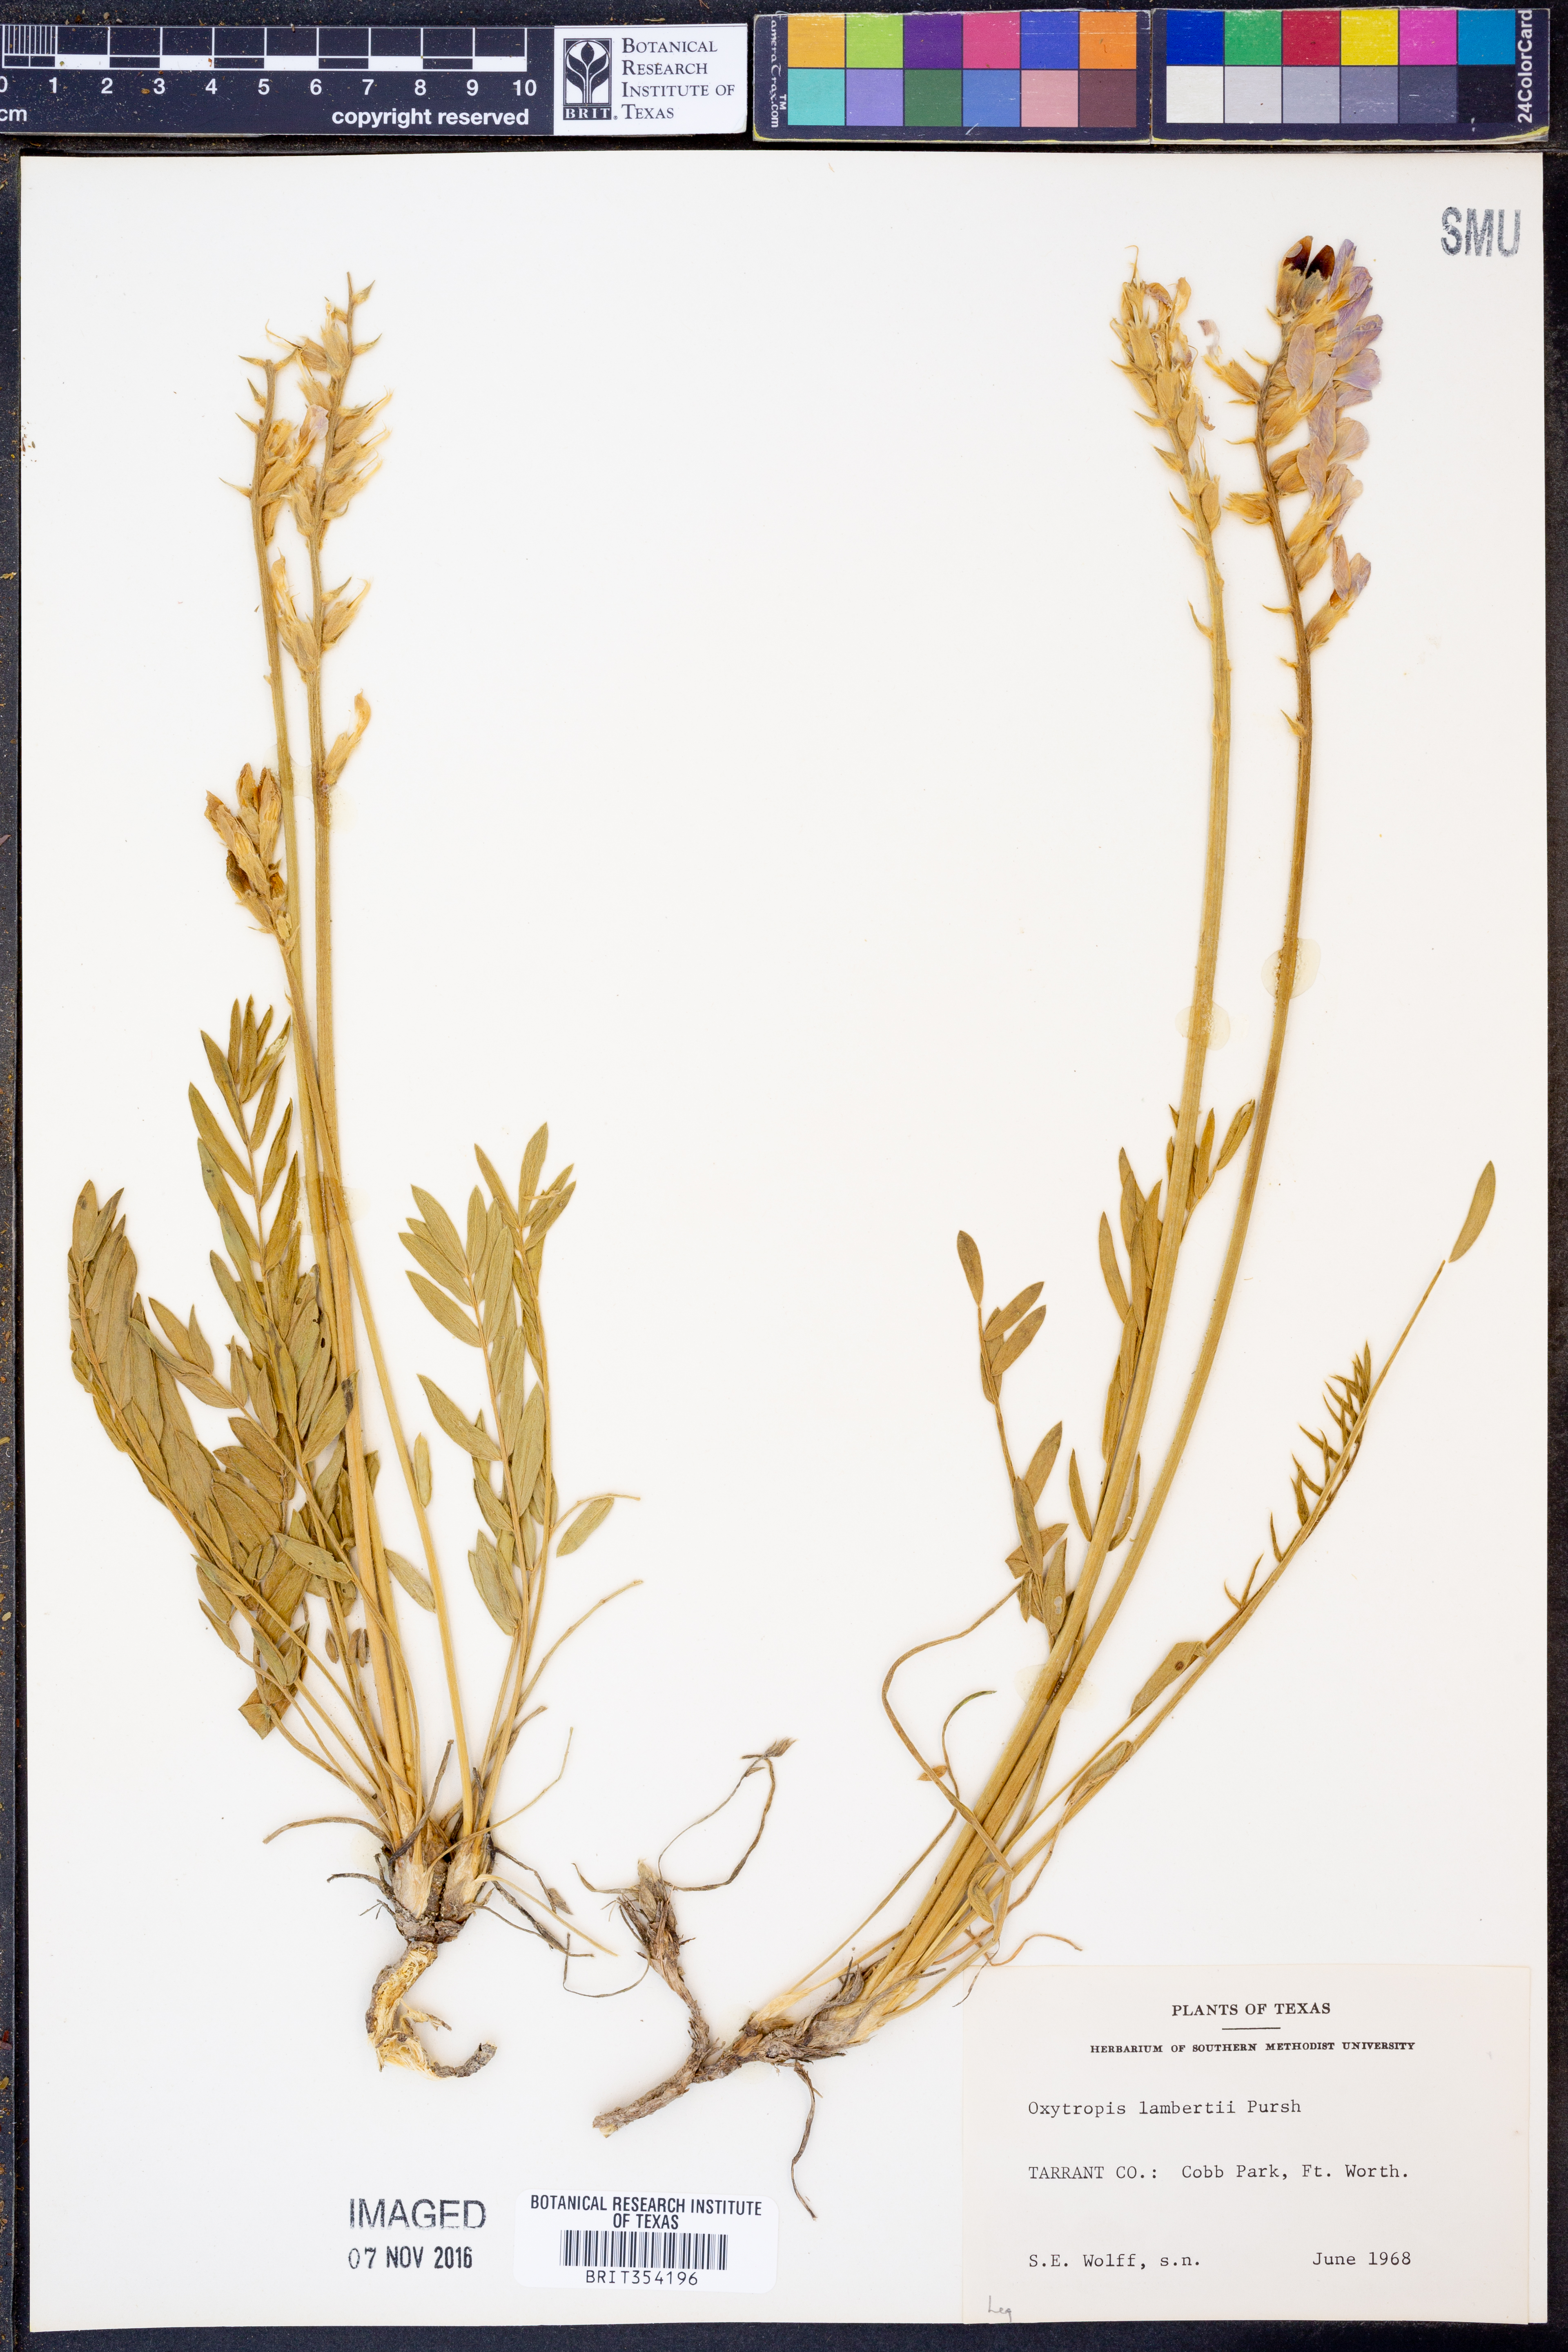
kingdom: Plantae
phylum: Tracheophyta
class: Magnoliopsida
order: Fabales
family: Fabaceae
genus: Oxytropis
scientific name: Oxytropis lambertii
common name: Purple locoweed
